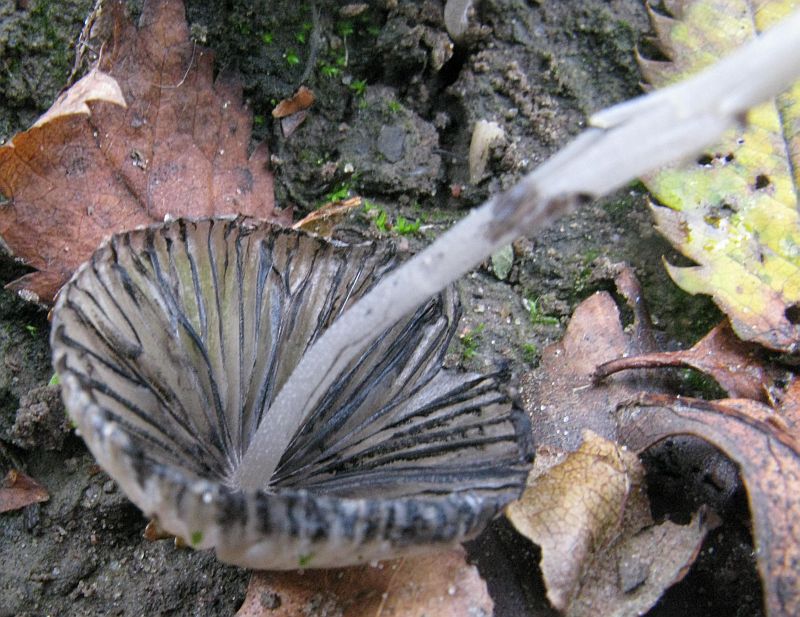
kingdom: Fungi
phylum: Basidiomycota
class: Agaricomycetes
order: Agaricales
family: Psathyrellaceae
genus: Tulosesus
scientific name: Tulosesus hiascens
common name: udspilet blækhat
